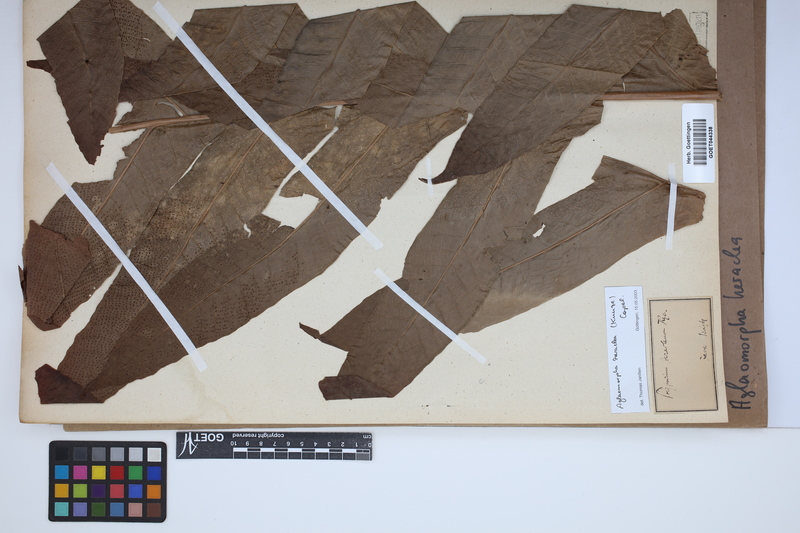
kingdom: Plantae
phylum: Tracheophyta
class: Polypodiopsida
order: Polypodiales
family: Polypodiaceae
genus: Drynaria
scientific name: Drynaria heraclea
